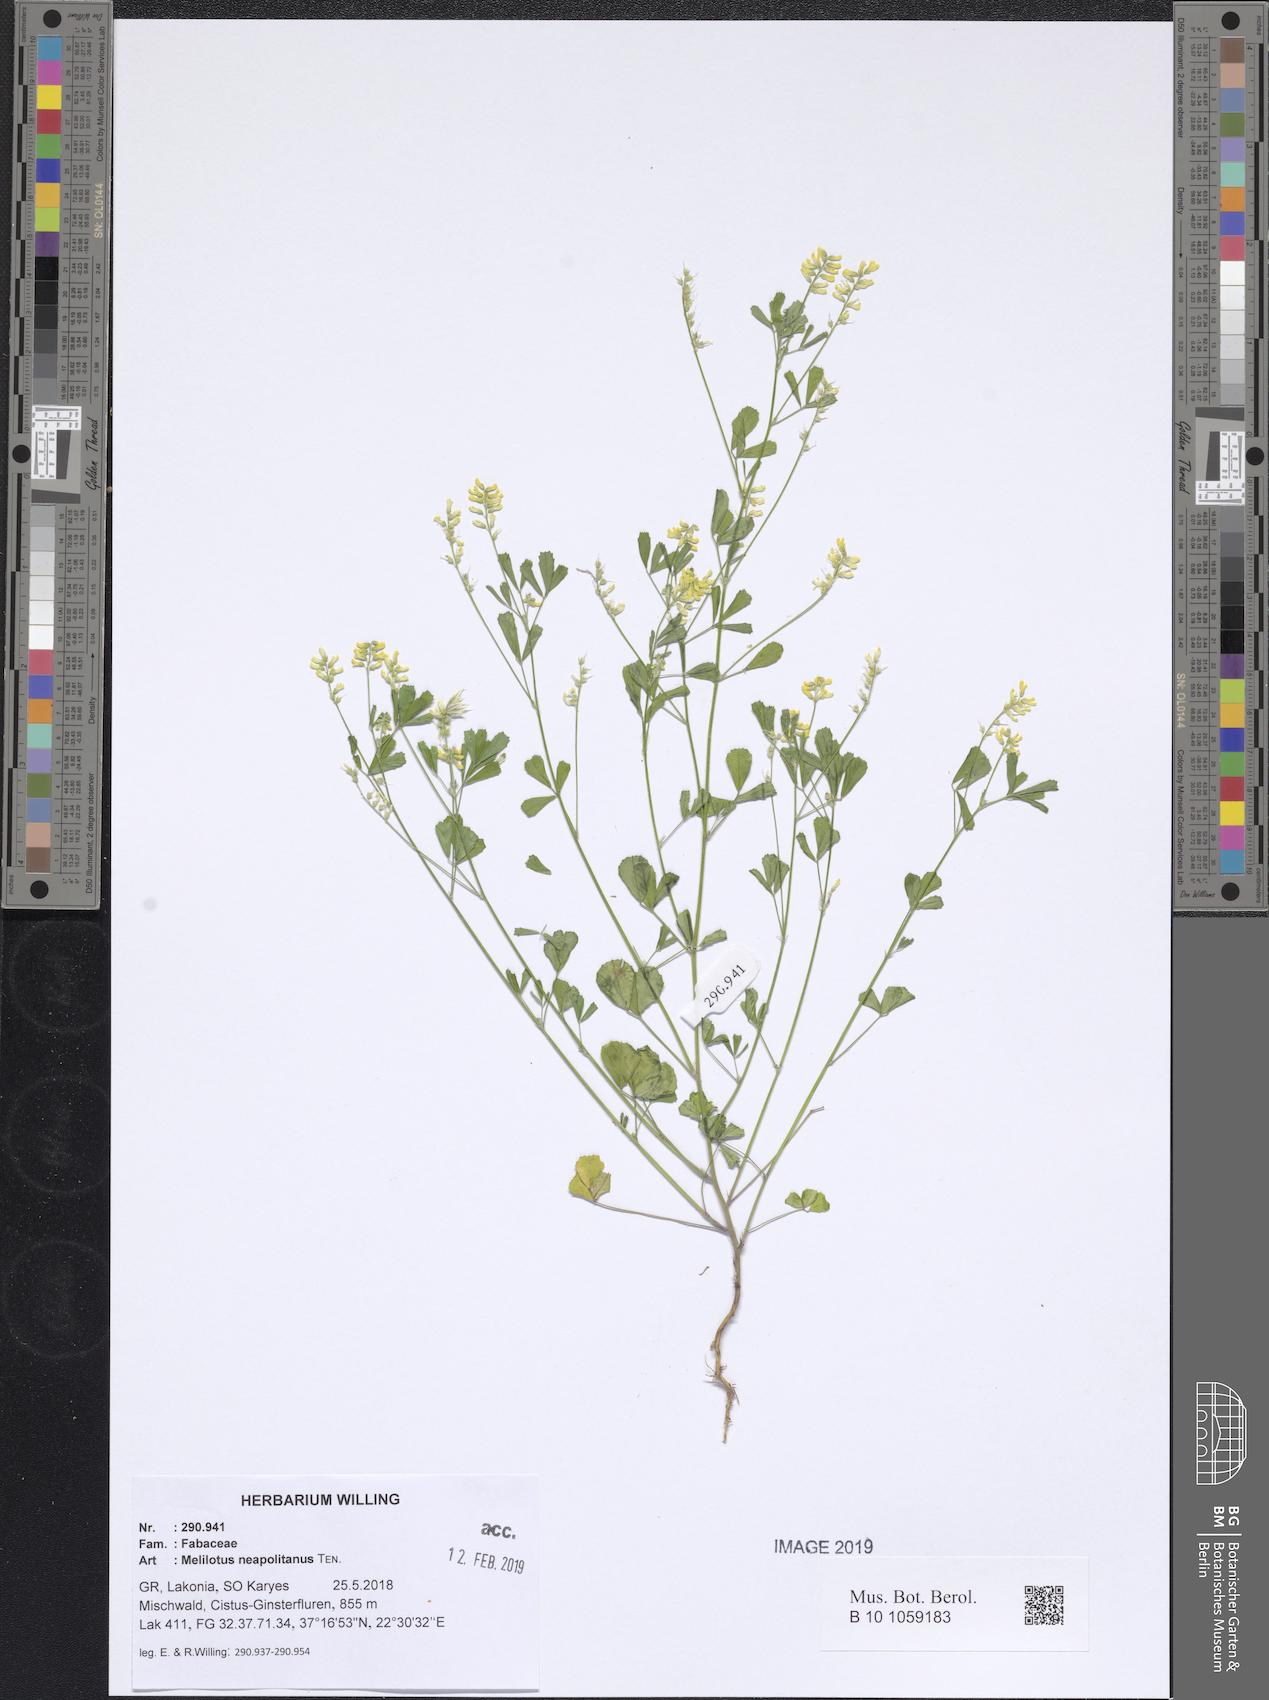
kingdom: Plantae
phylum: Tracheophyta
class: Magnoliopsida
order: Fabales
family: Fabaceae
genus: Melilotus
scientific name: Melilotus neapolitanus
